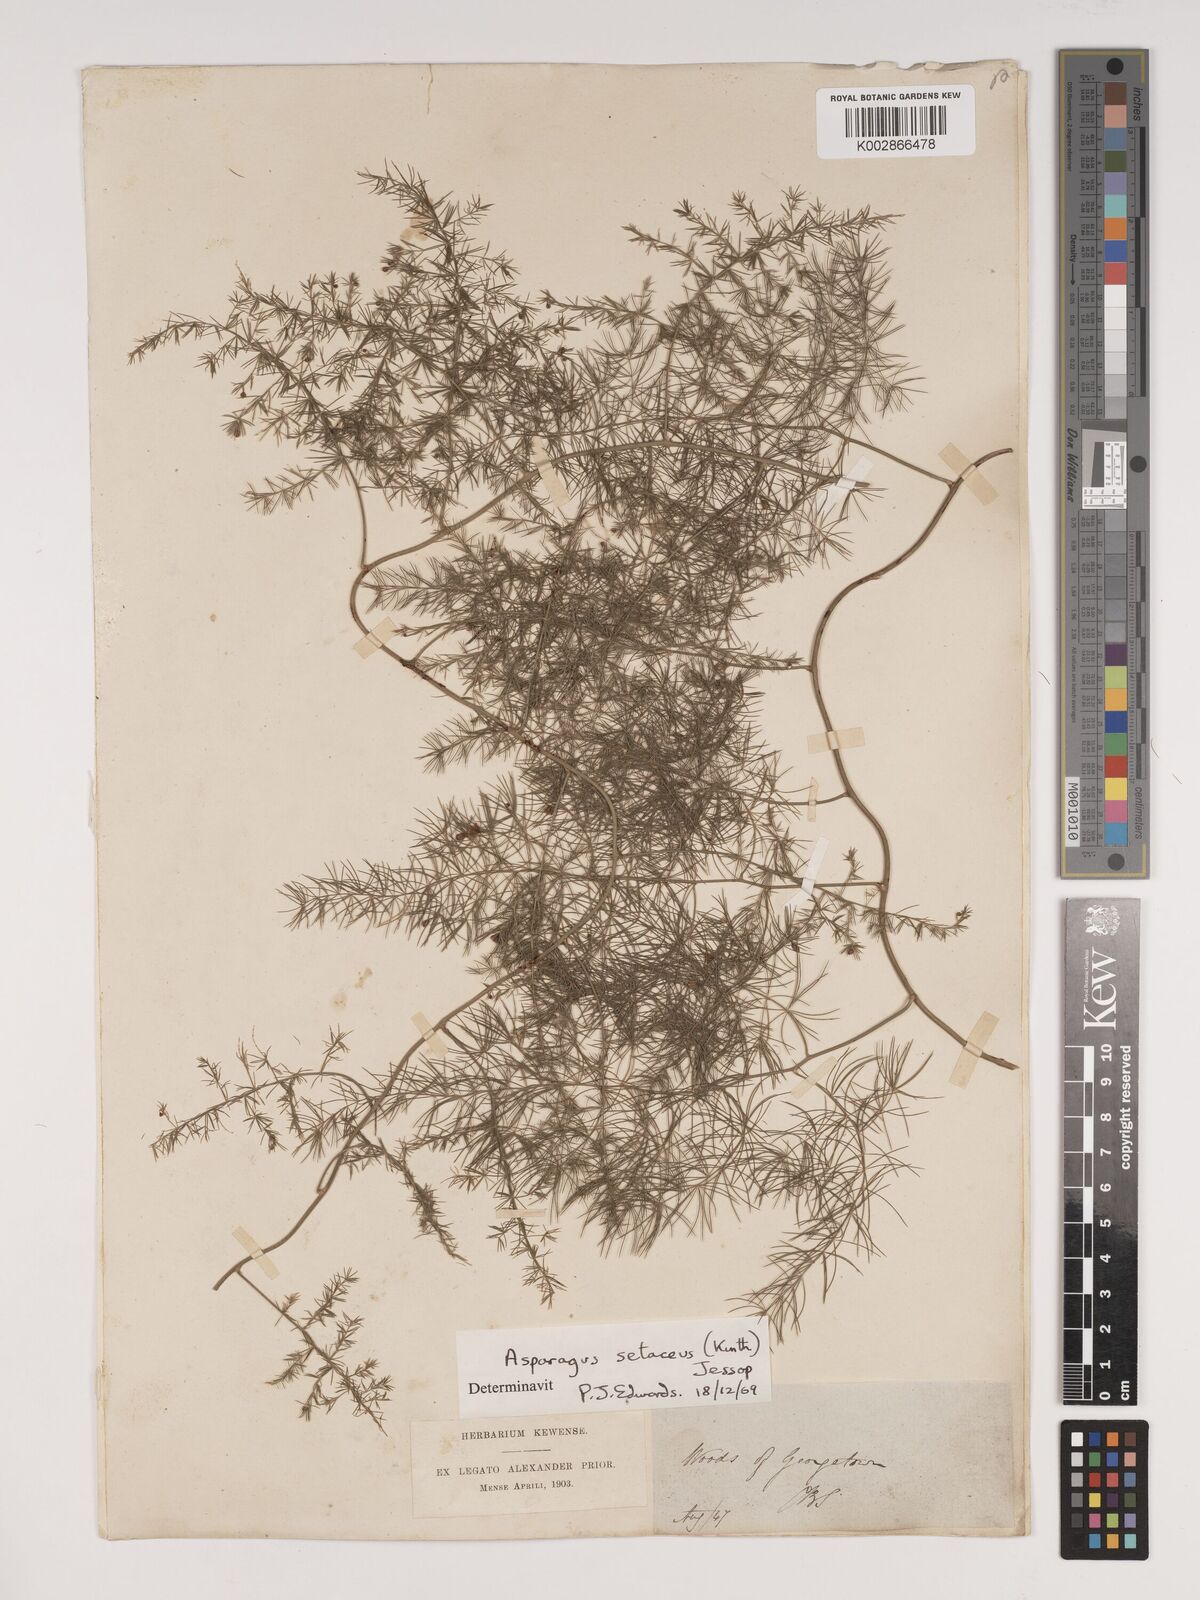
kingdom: Plantae
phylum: Tracheophyta
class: Liliopsida
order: Asparagales
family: Asparagaceae
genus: Asparagus
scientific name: Asparagus setaceus
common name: Common asparagus fern
